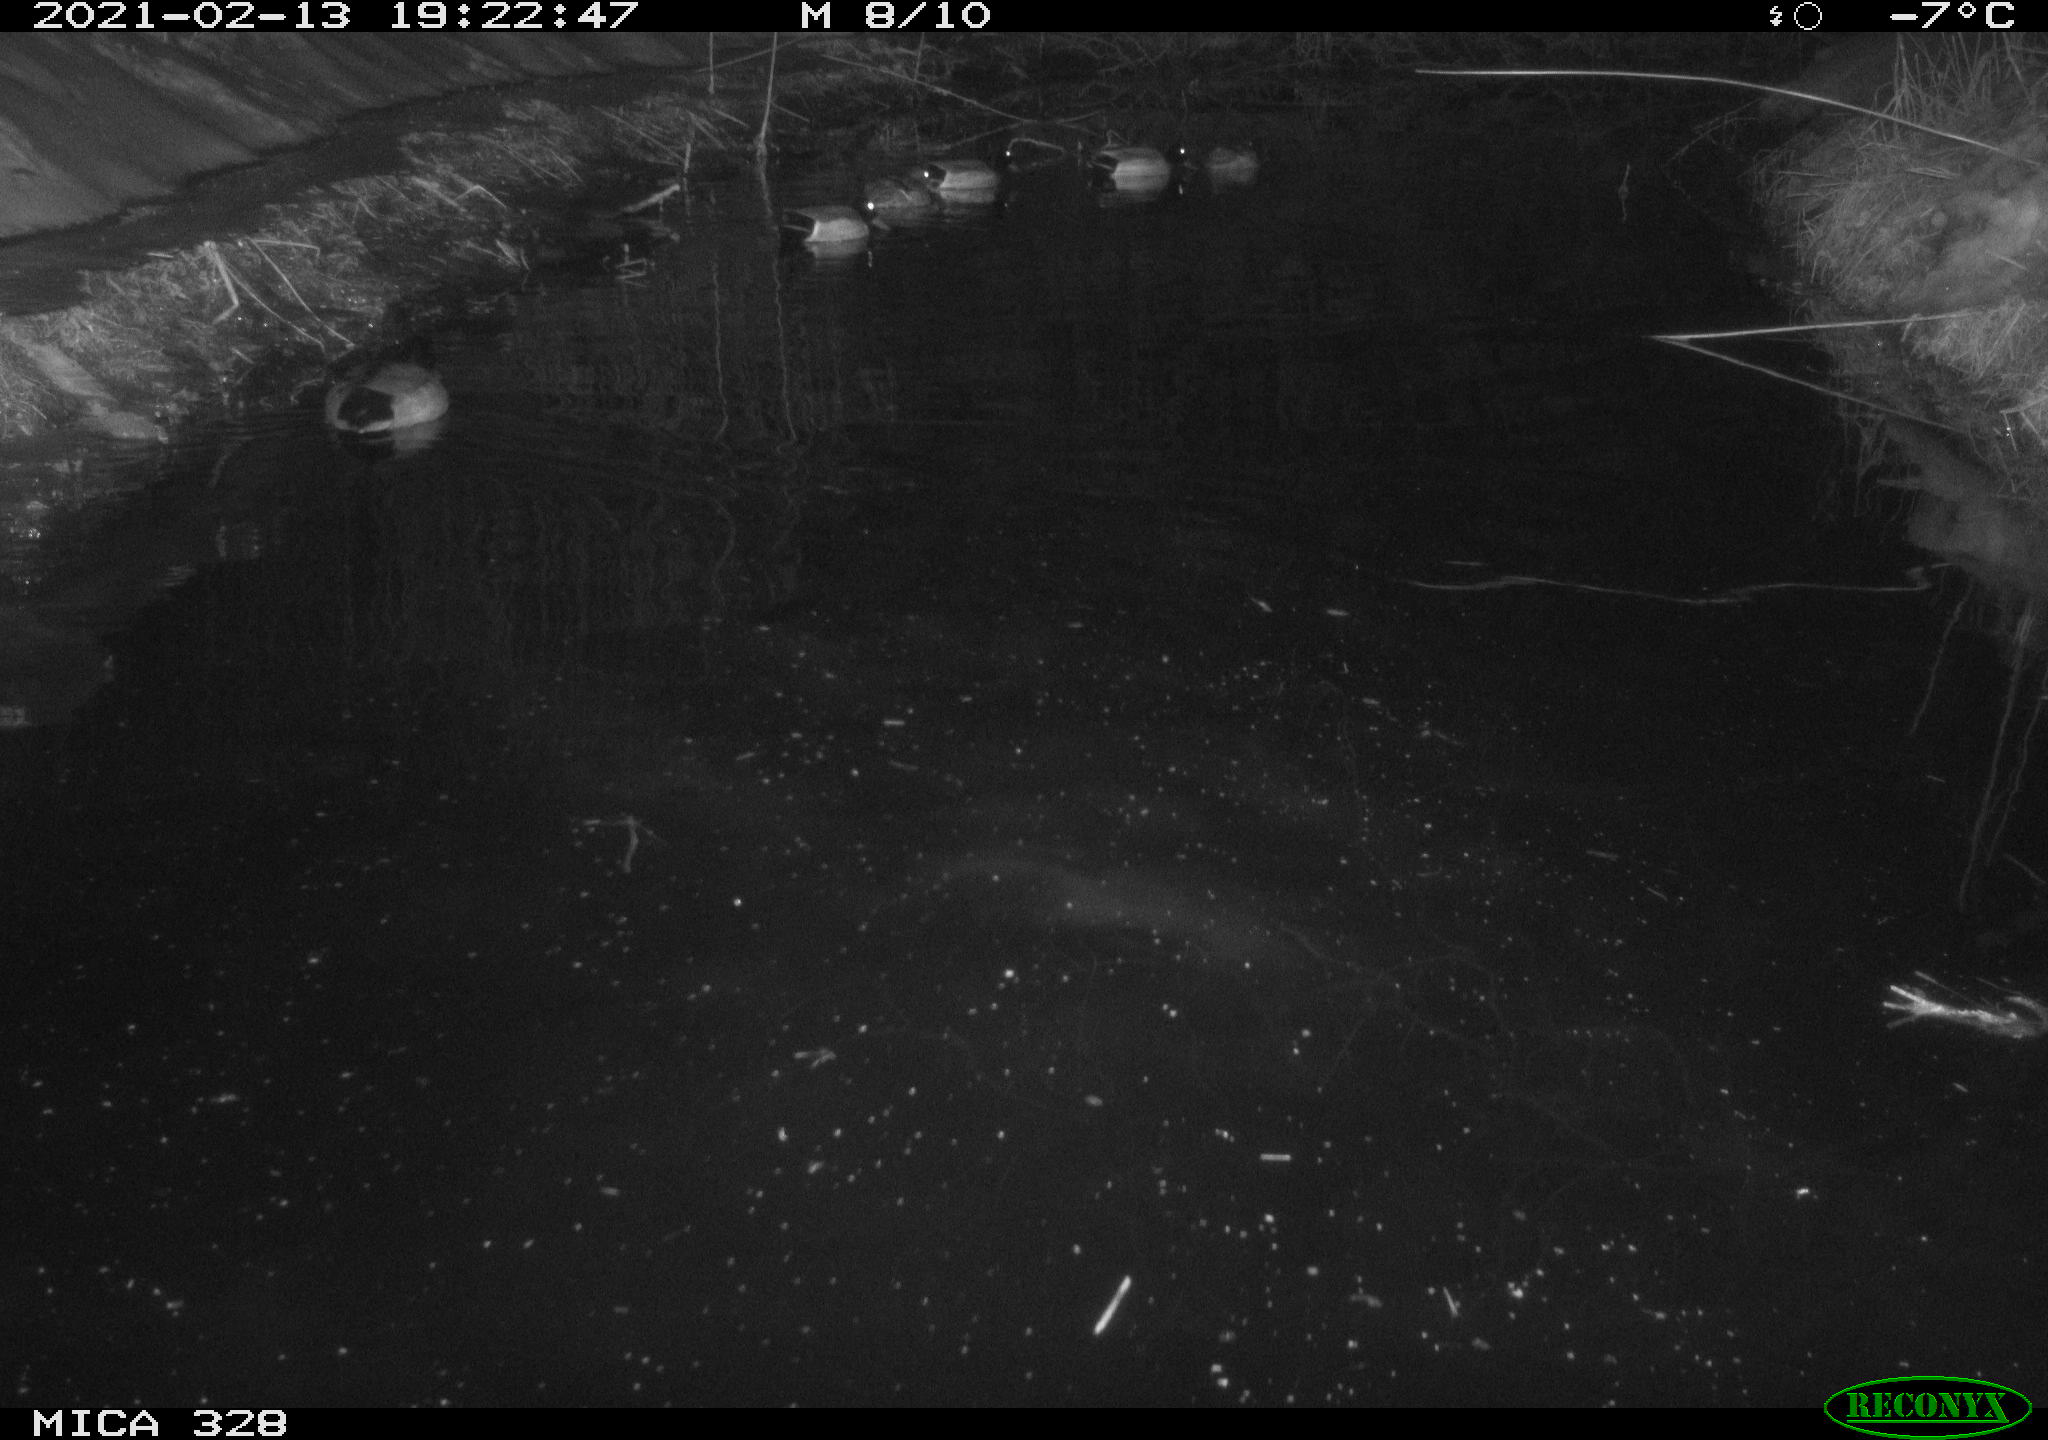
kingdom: Animalia
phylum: Chordata
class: Aves
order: Anseriformes
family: Anatidae
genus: Anas
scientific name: Anas platyrhynchos
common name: Mallard
